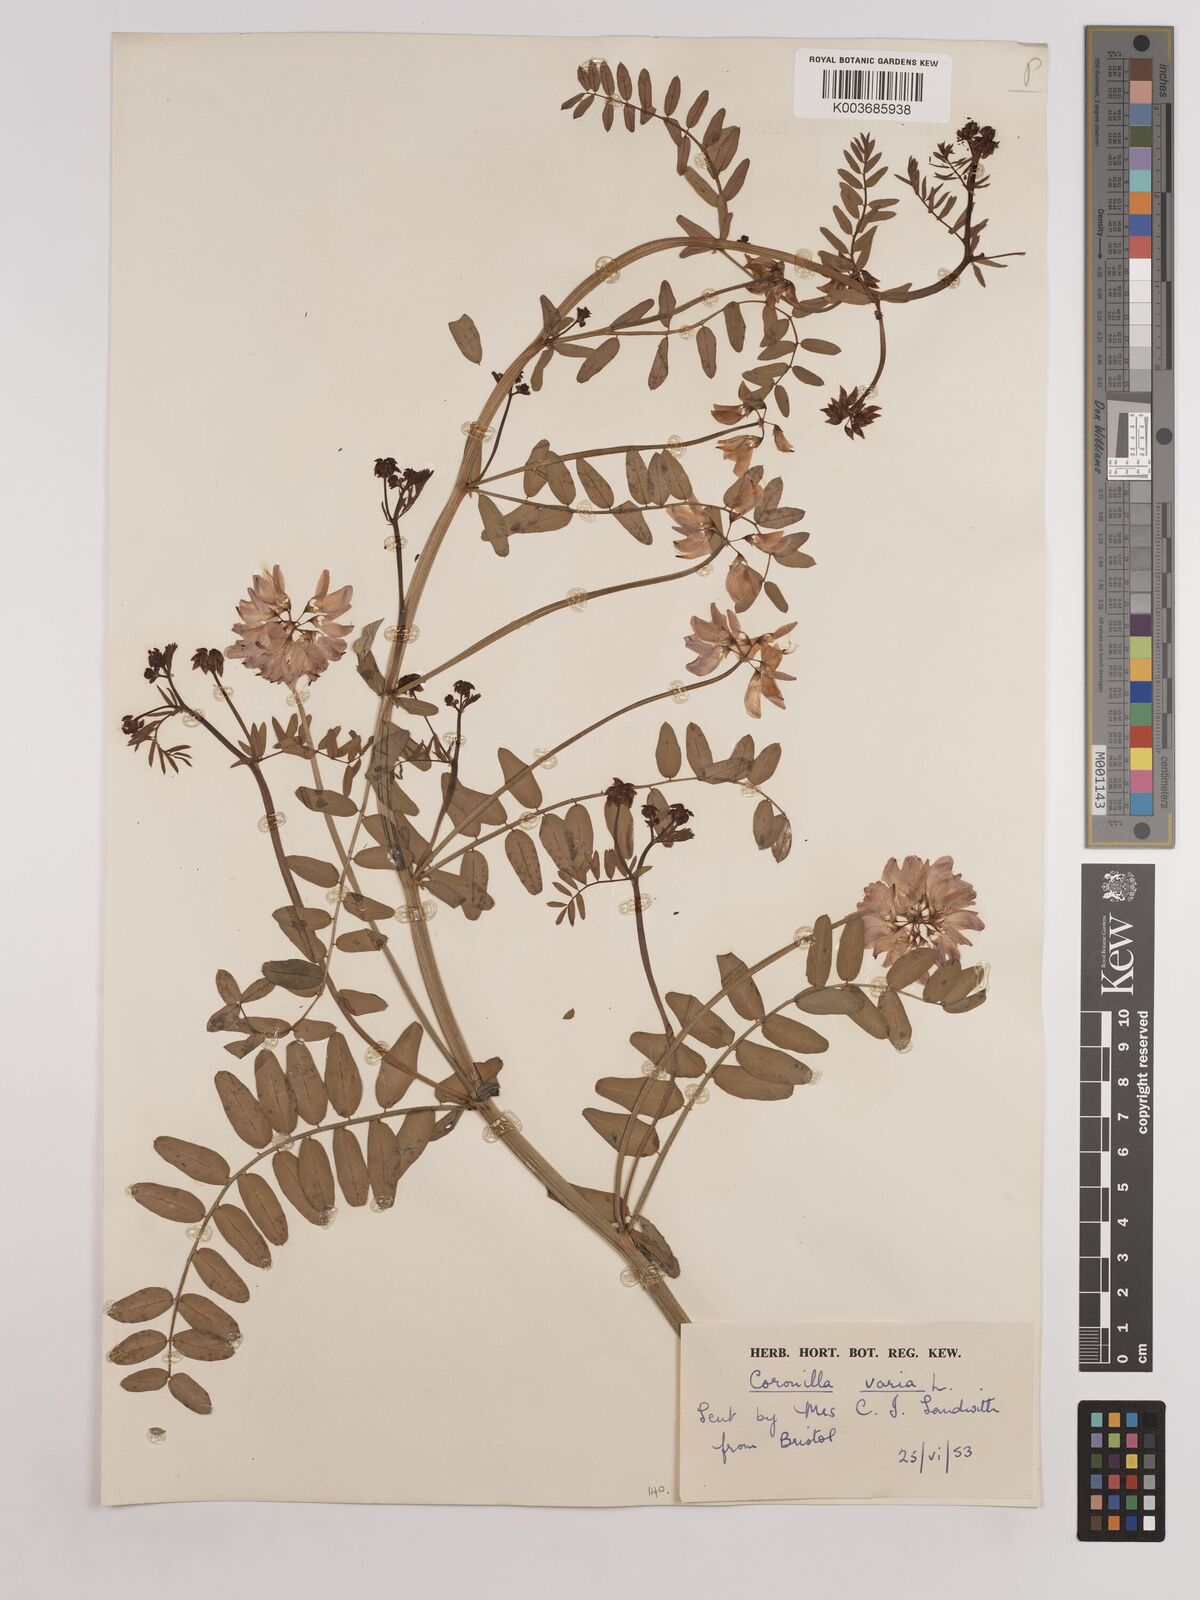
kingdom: Plantae
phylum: Tracheophyta
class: Magnoliopsida
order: Fabales
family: Fabaceae
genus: Coronilla
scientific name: Coronilla varia
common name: Crownvetch
